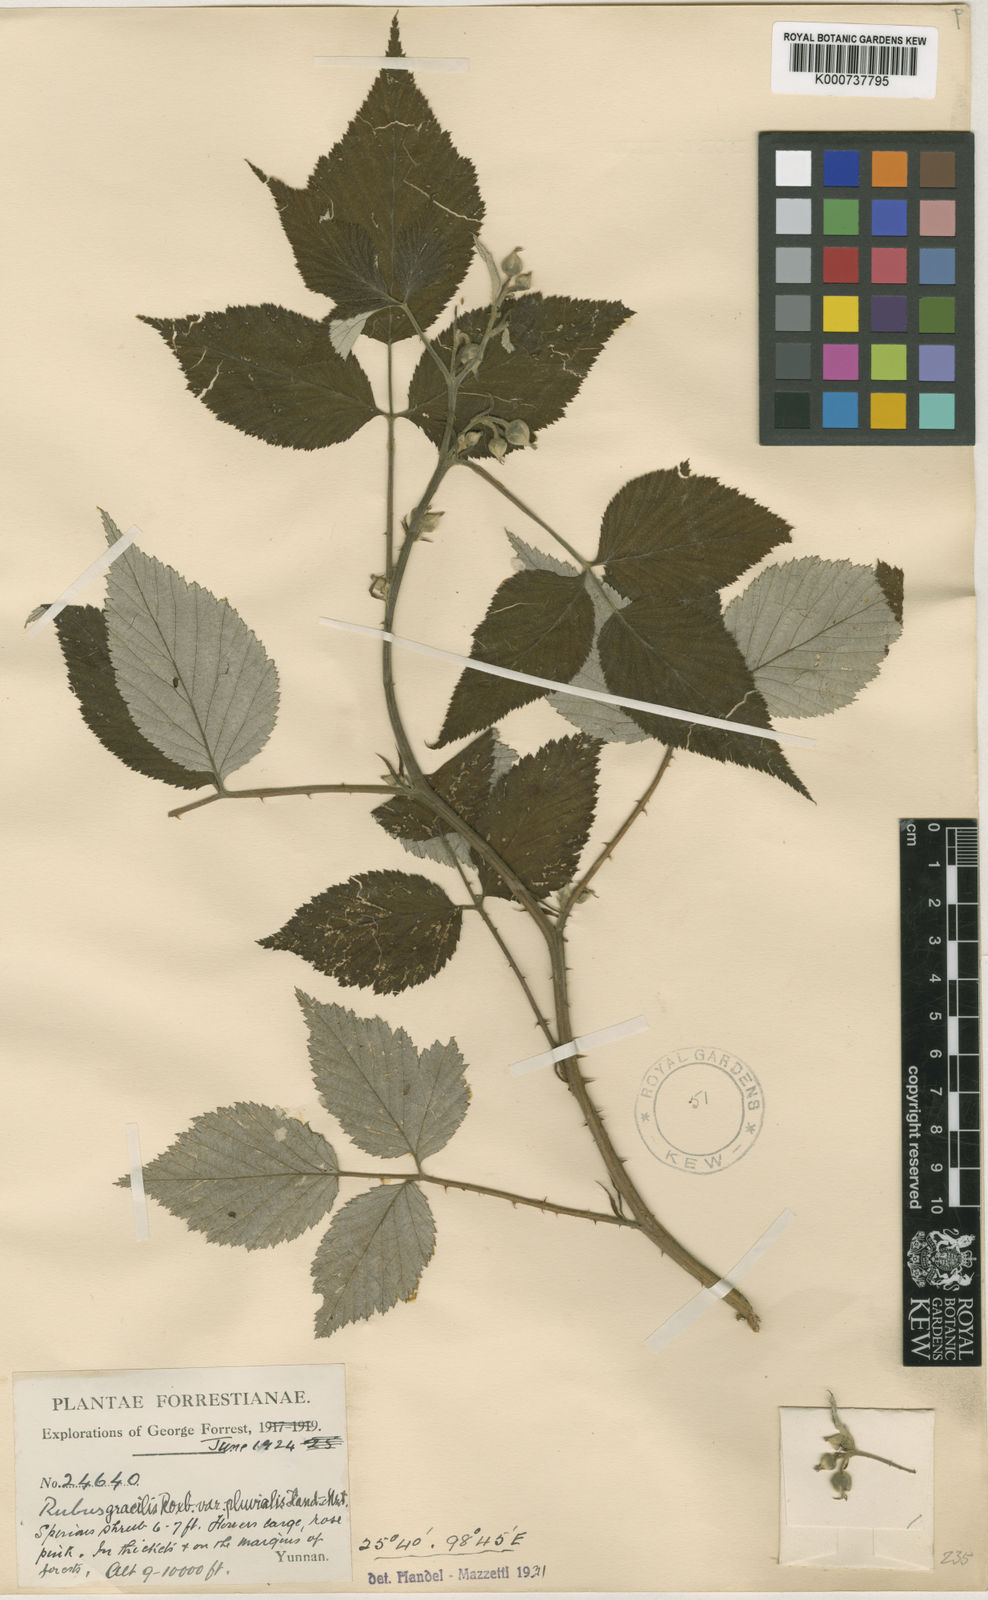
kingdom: Plantae
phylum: Tracheophyta
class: Magnoliopsida
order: Rosales
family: Rosaceae
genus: Rubus
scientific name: Rubus
